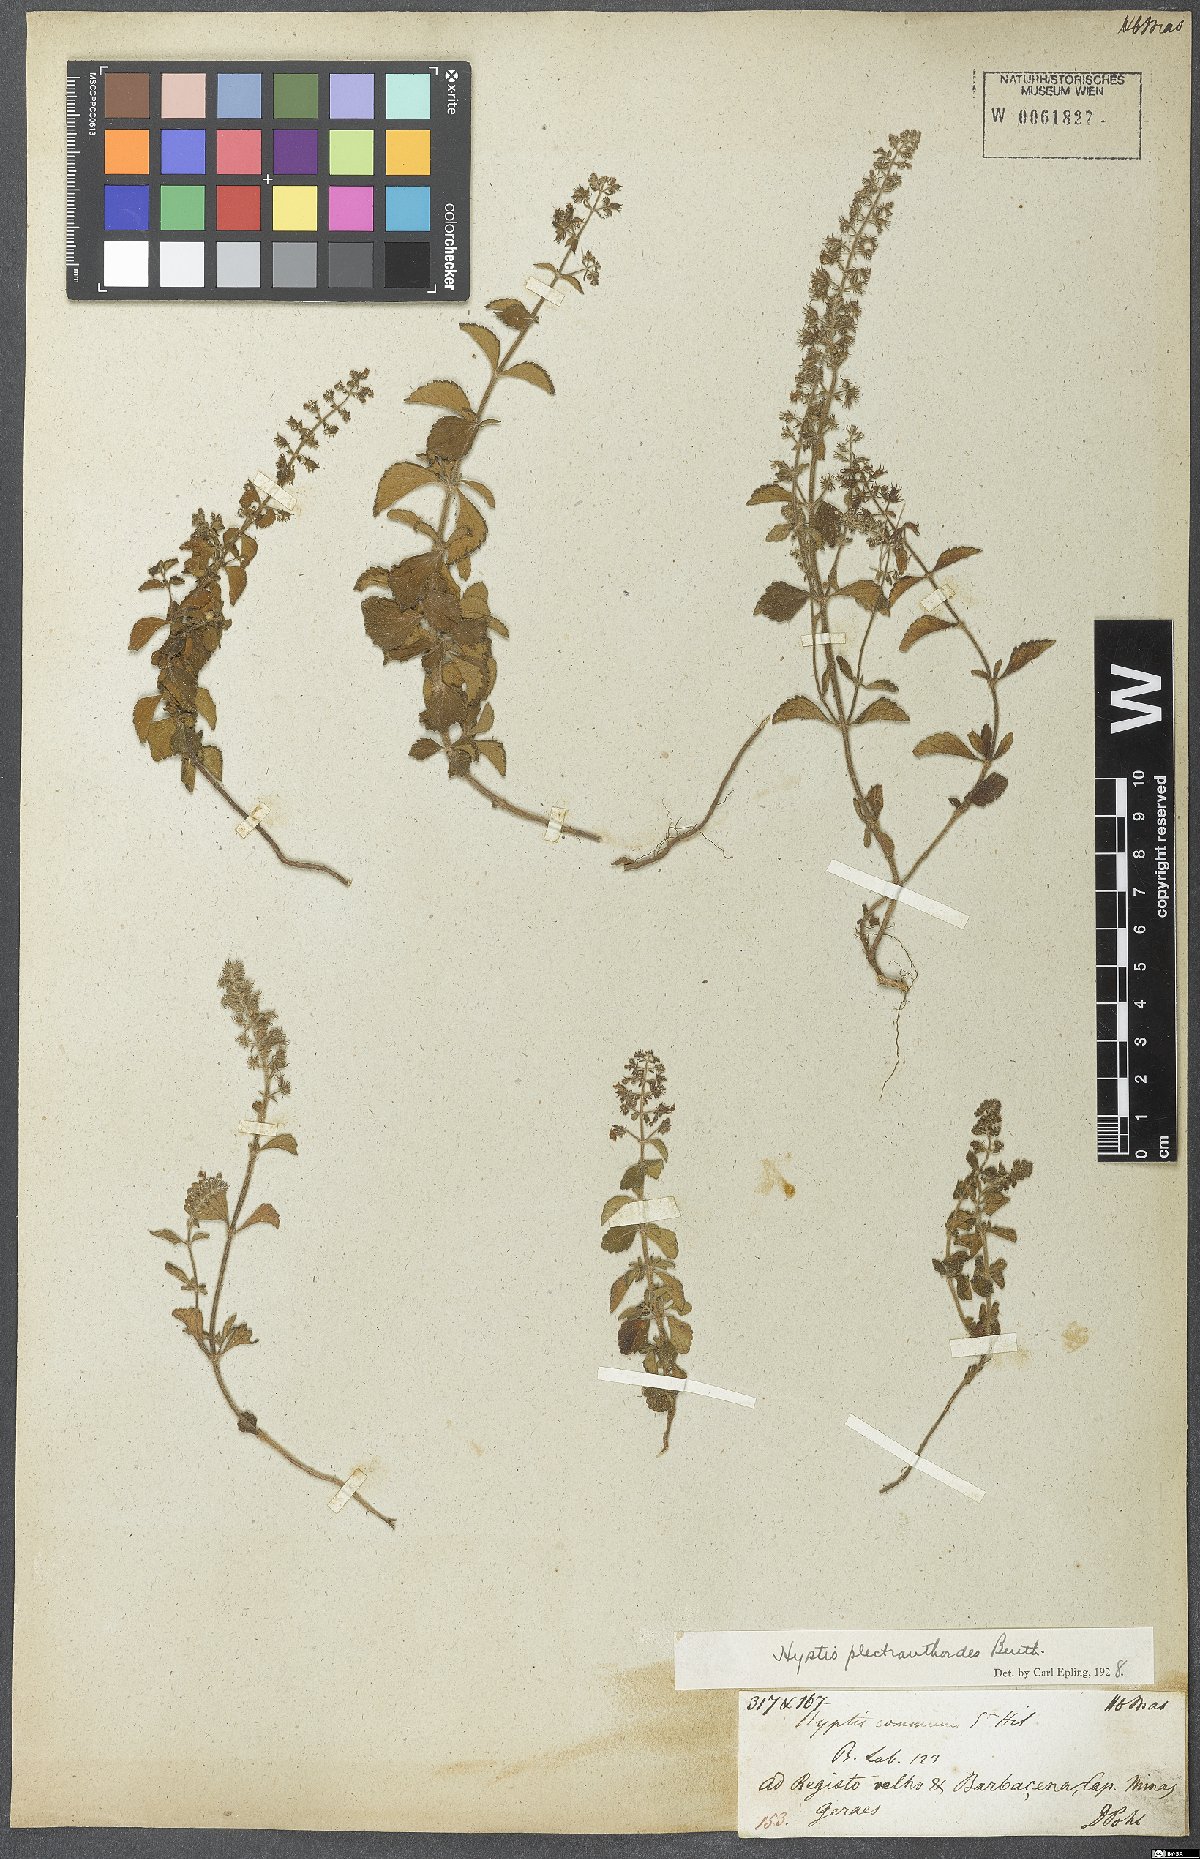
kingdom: Plantae
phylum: Tracheophyta
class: Magnoliopsida
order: Lamiales
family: Lamiaceae
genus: Cantinoa
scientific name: Cantinoa plectranthoides
